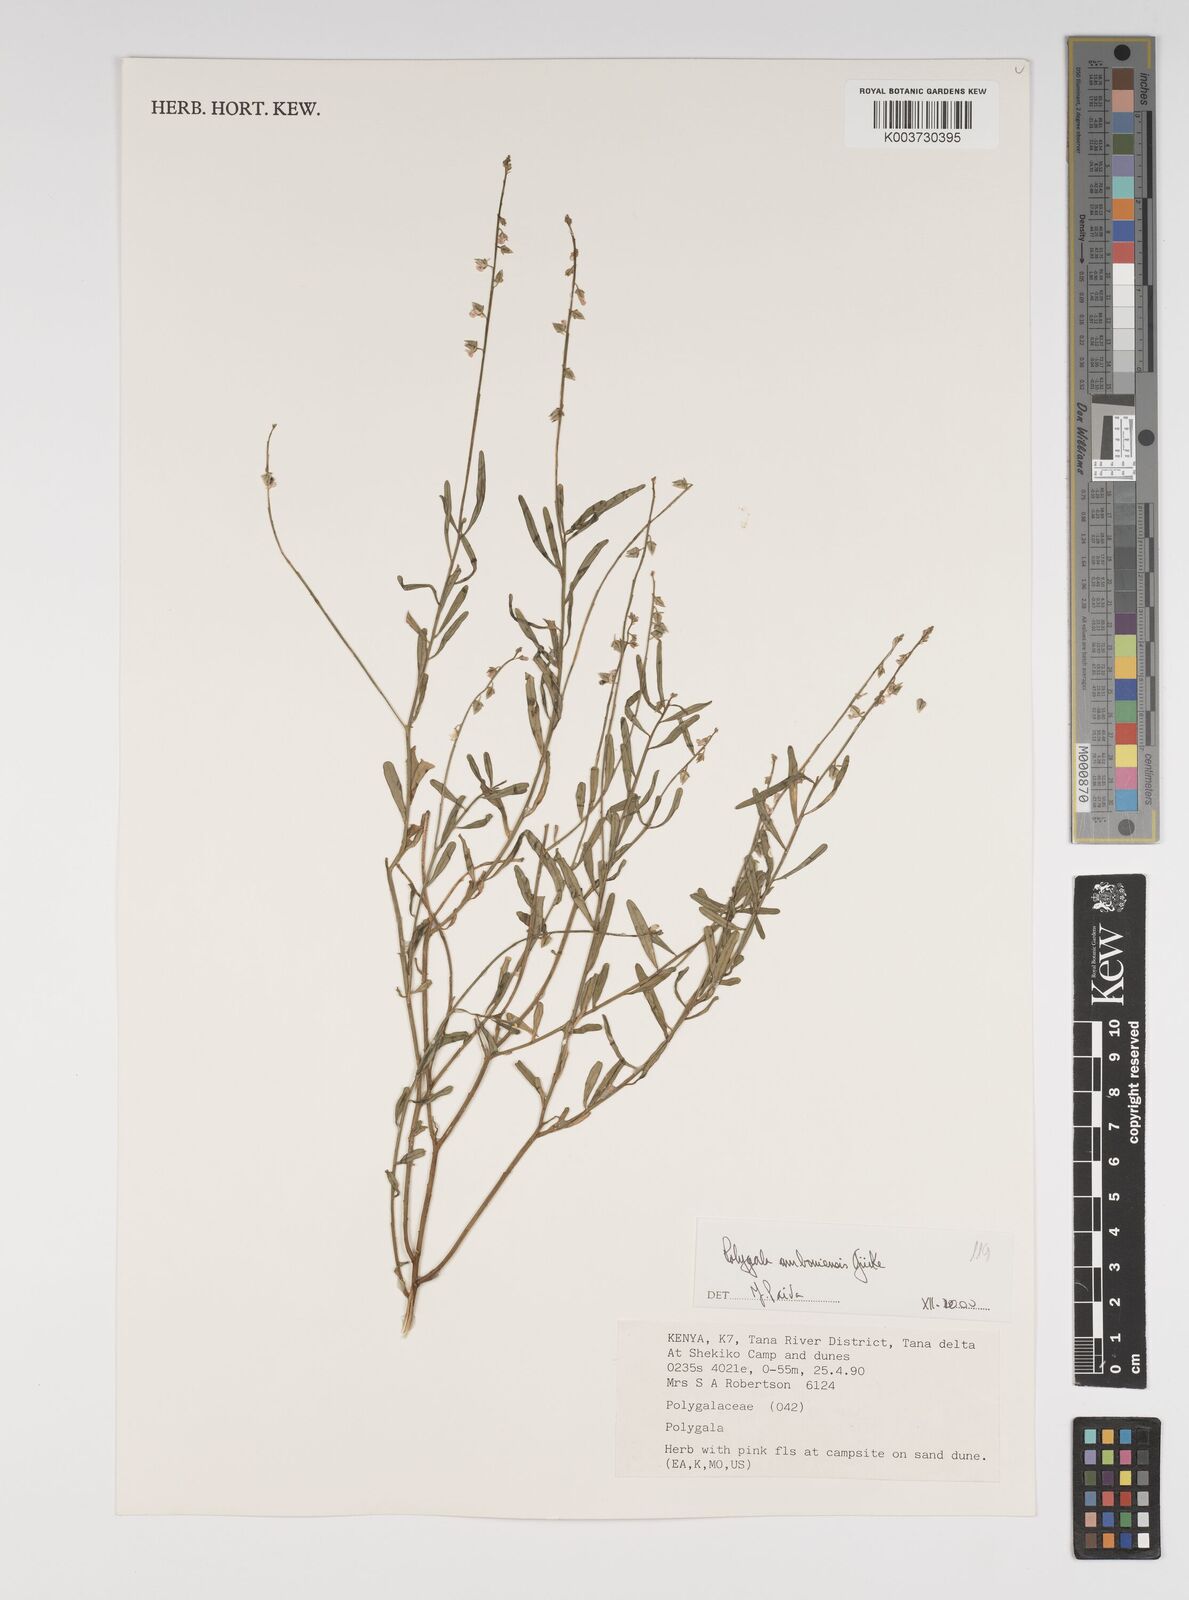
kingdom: Plantae
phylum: Tracheophyta
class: Magnoliopsida
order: Fabales
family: Polygalaceae
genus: Polygala
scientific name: Polygala amboniensis
